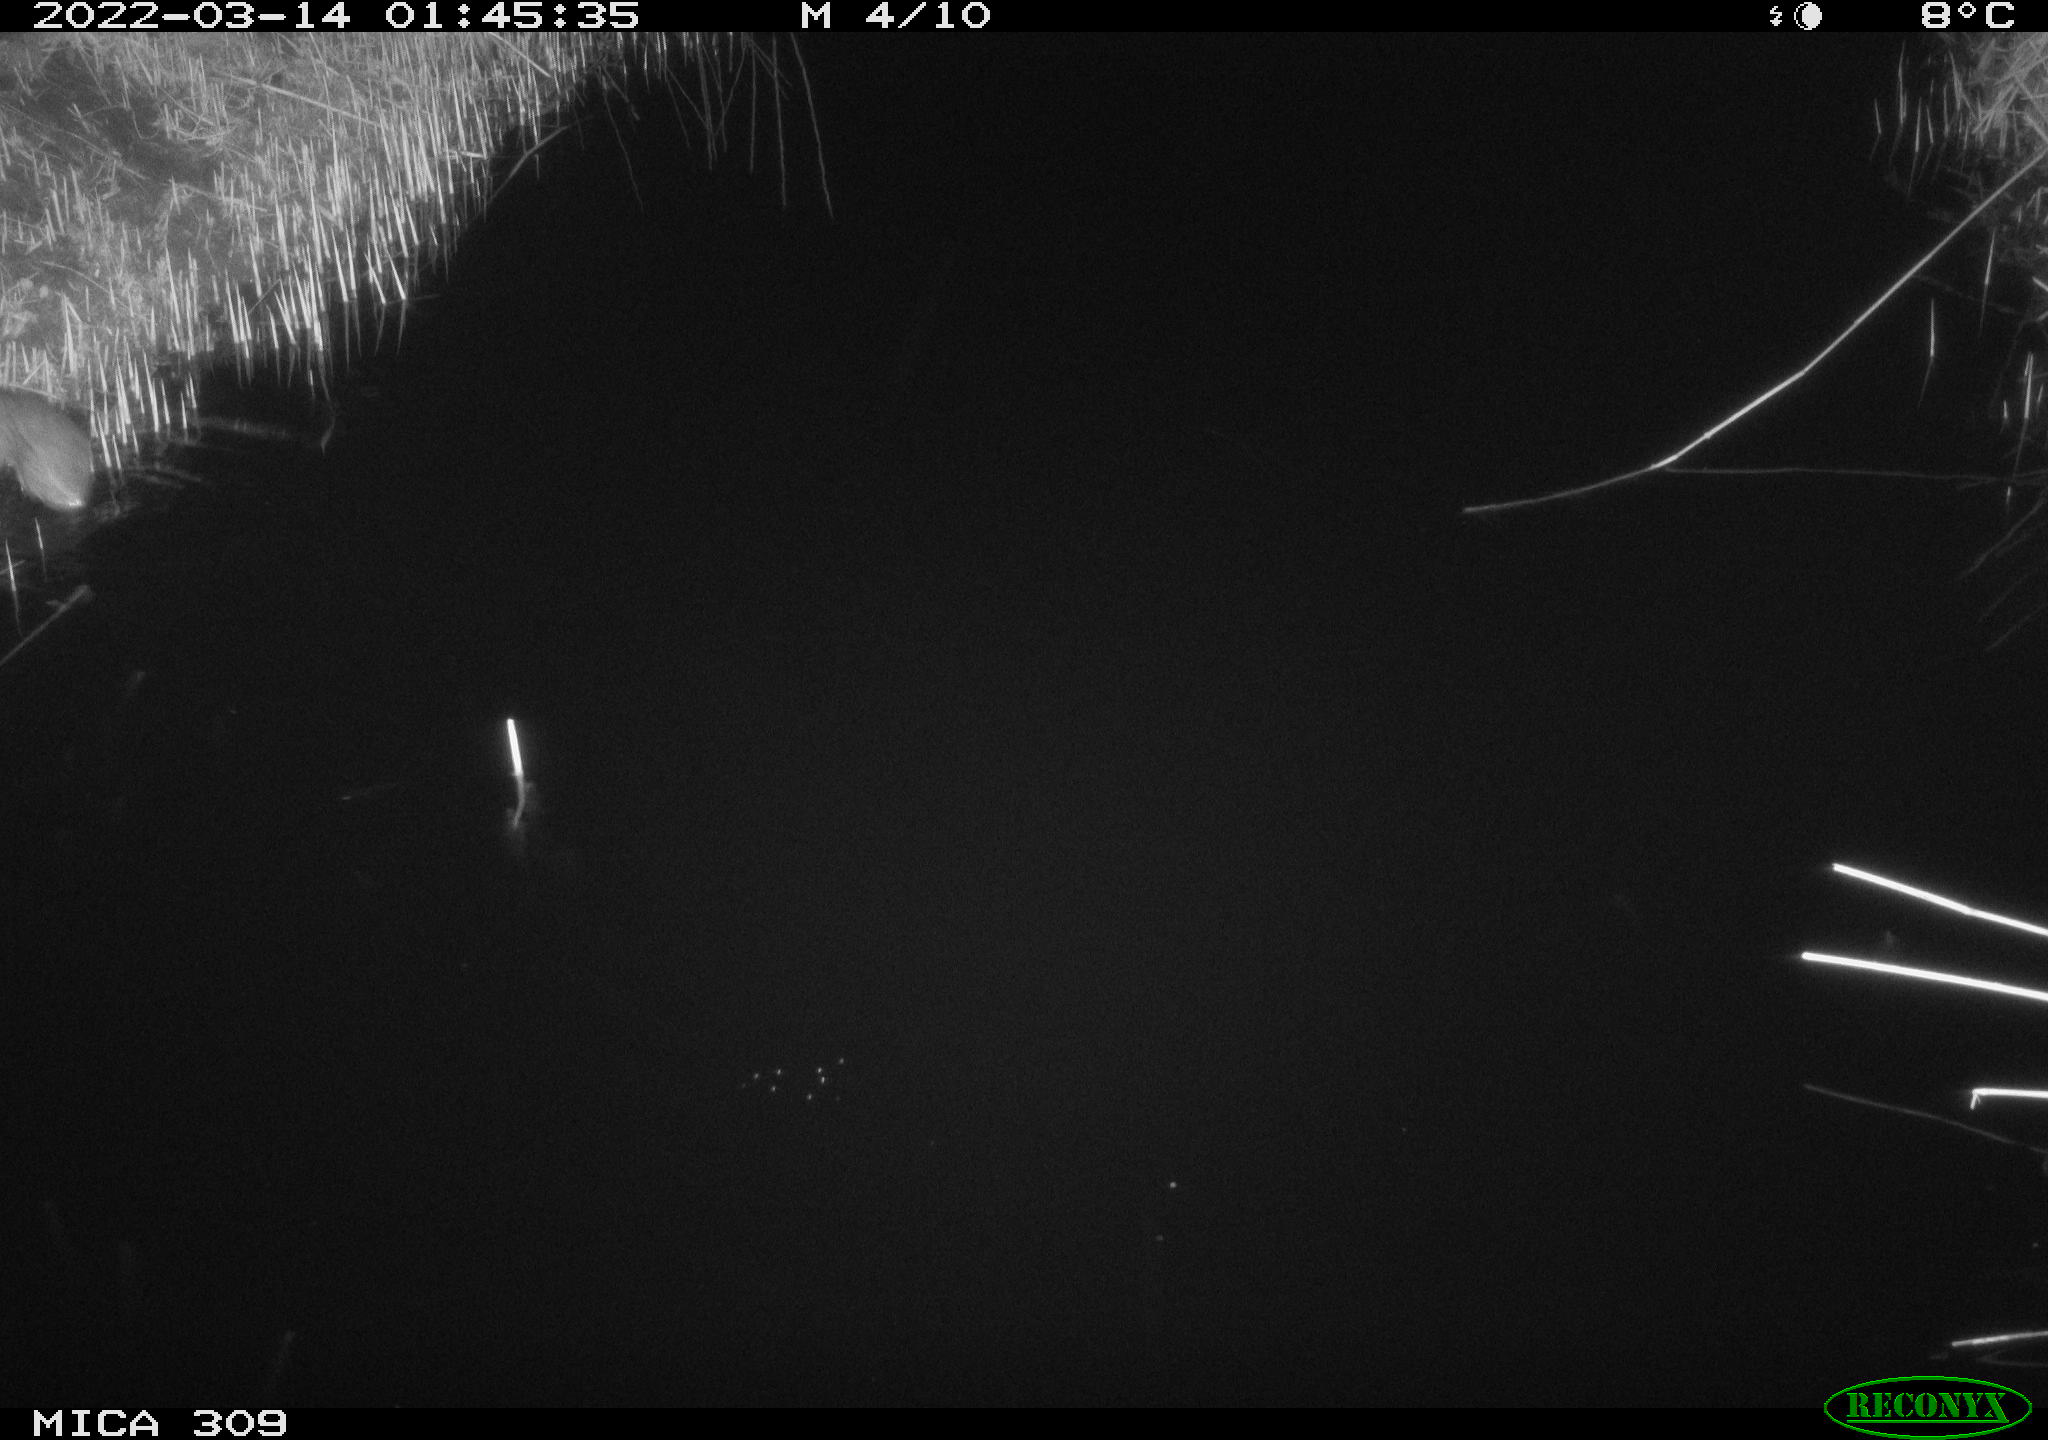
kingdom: Animalia
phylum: Chordata
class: Mammalia
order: Rodentia
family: Muridae
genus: Rattus
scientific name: Rattus norvegicus
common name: Brown rat
